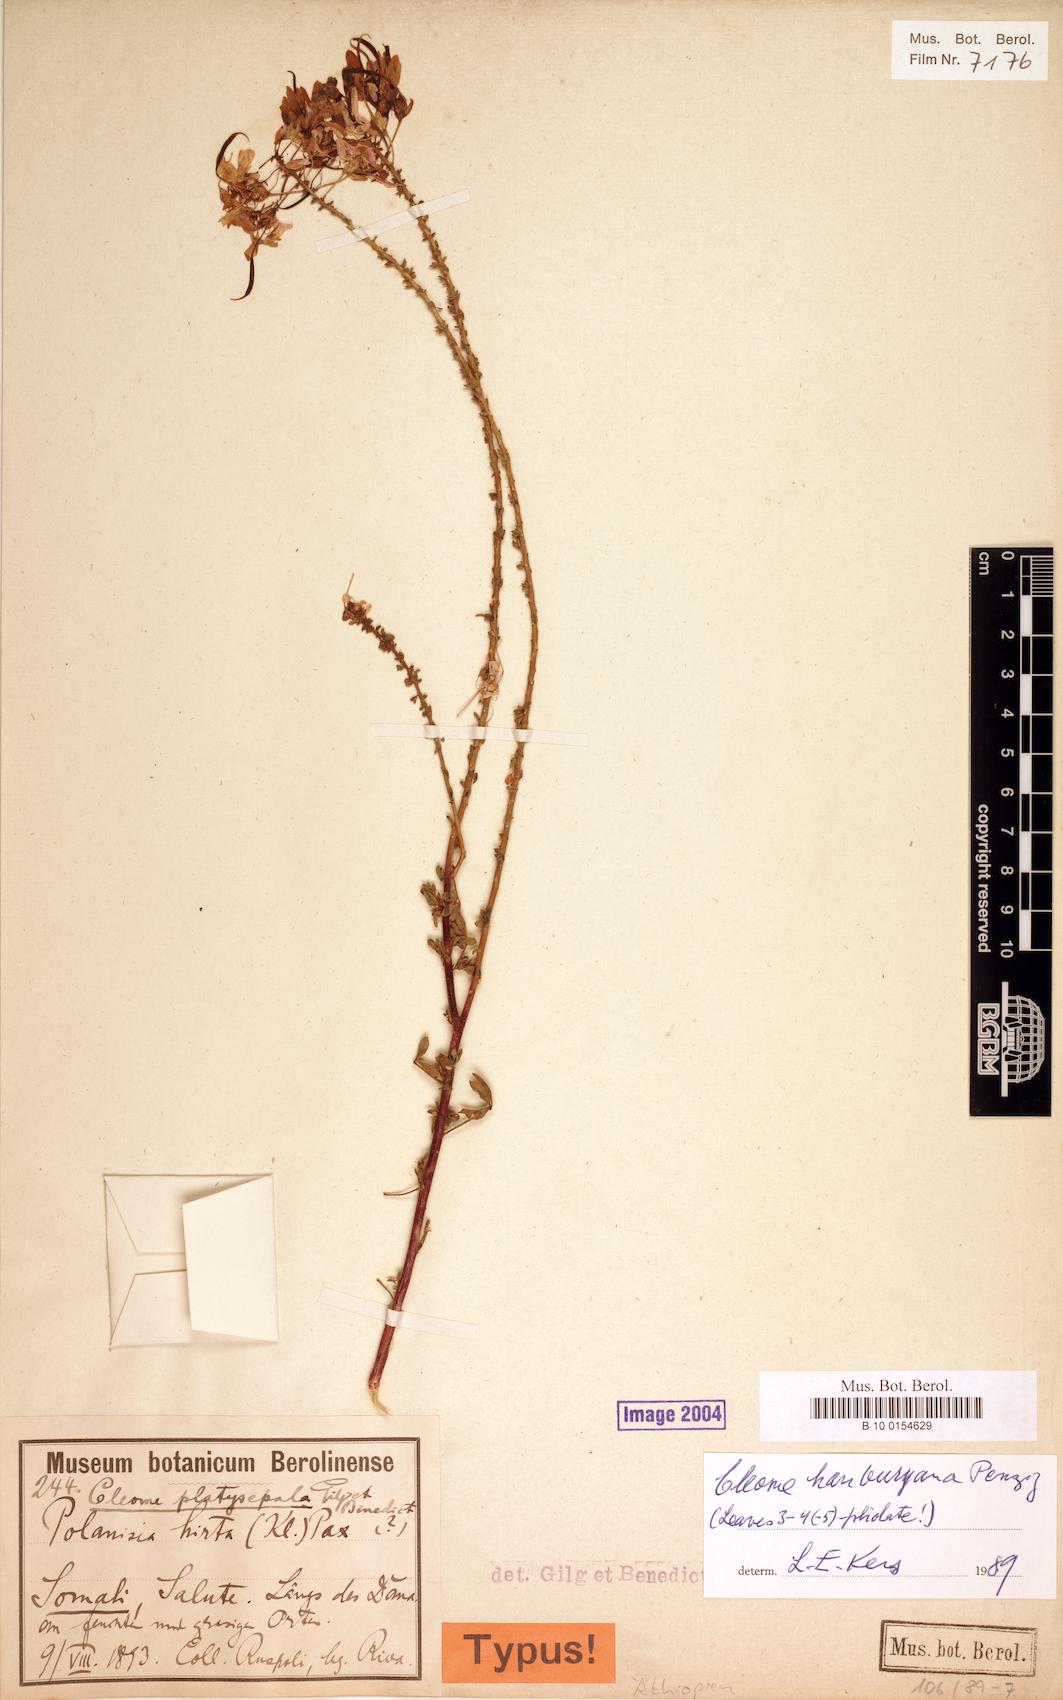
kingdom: Plantae
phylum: Tracheophyta
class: Magnoliopsida
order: Brassicales
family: Cleomaceae
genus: Sieruela
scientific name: Sieruela hanburyana
